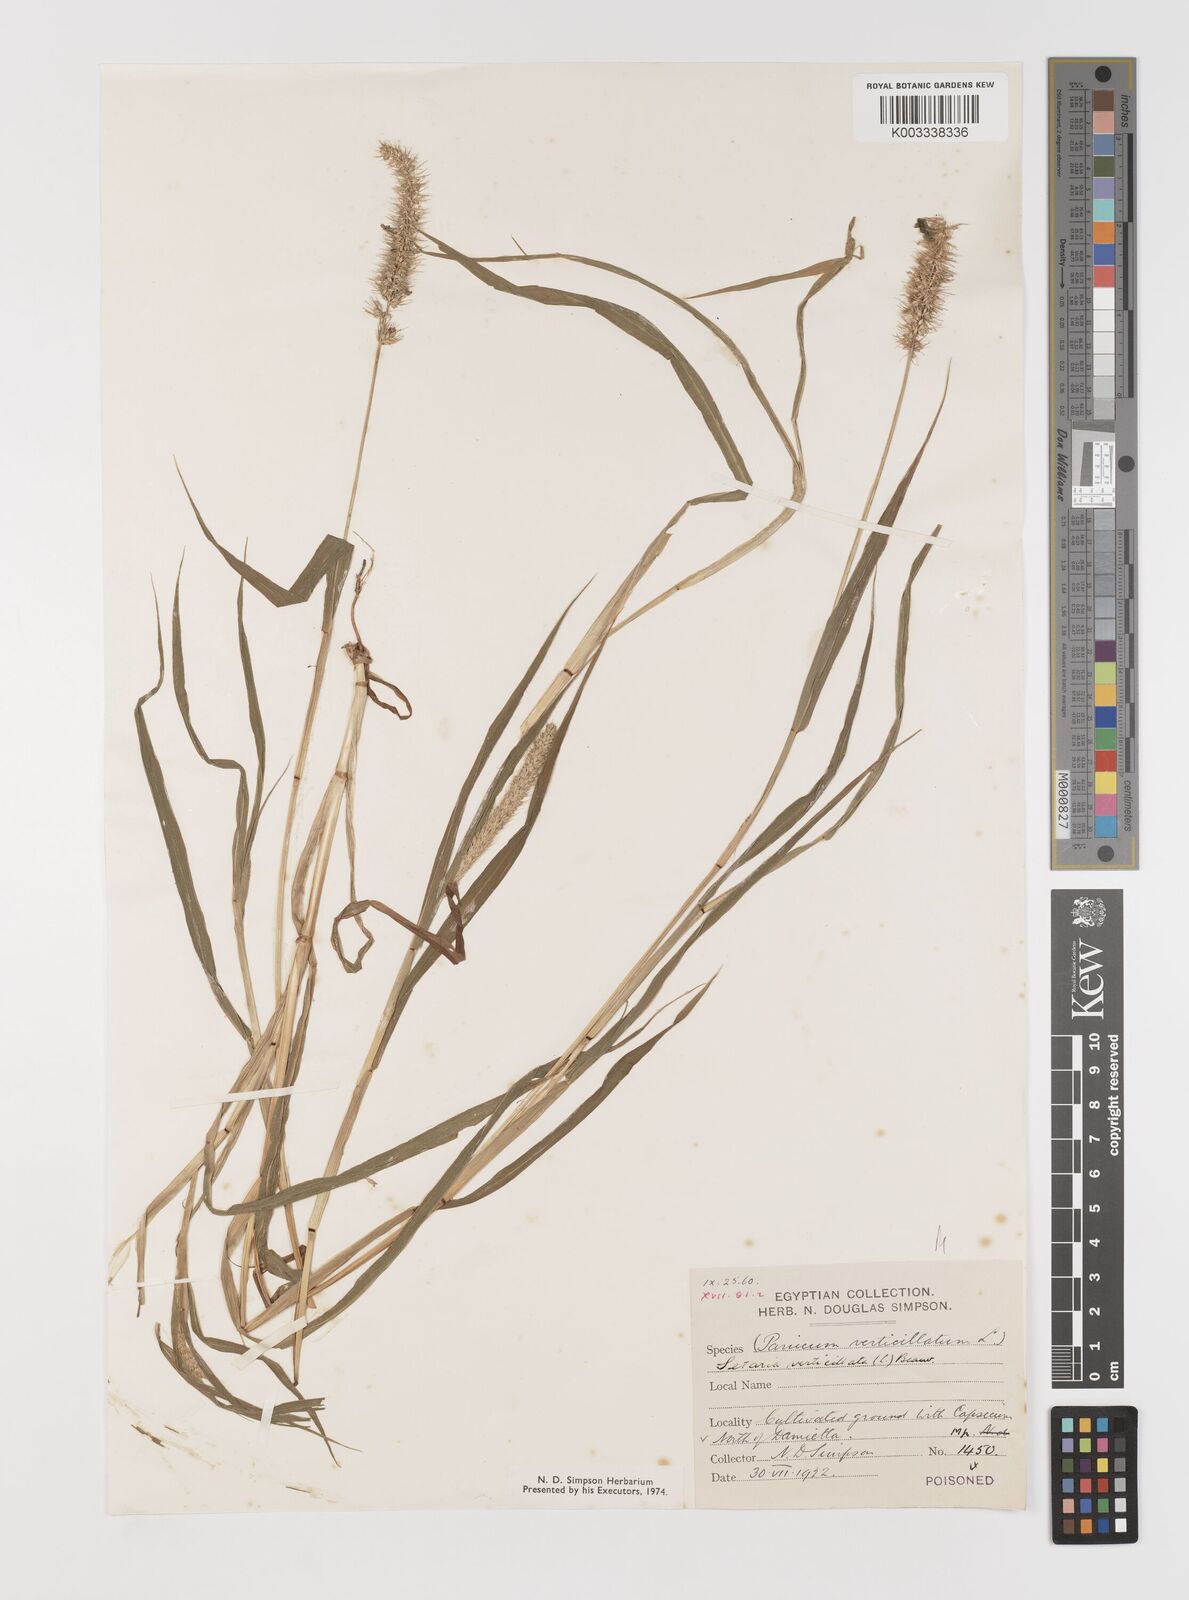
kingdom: Plantae
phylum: Tracheophyta
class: Liliopsida
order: Poales
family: Poaceae
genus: Setaria
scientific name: Setaria verticillata
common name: Hooked bristlegrass
